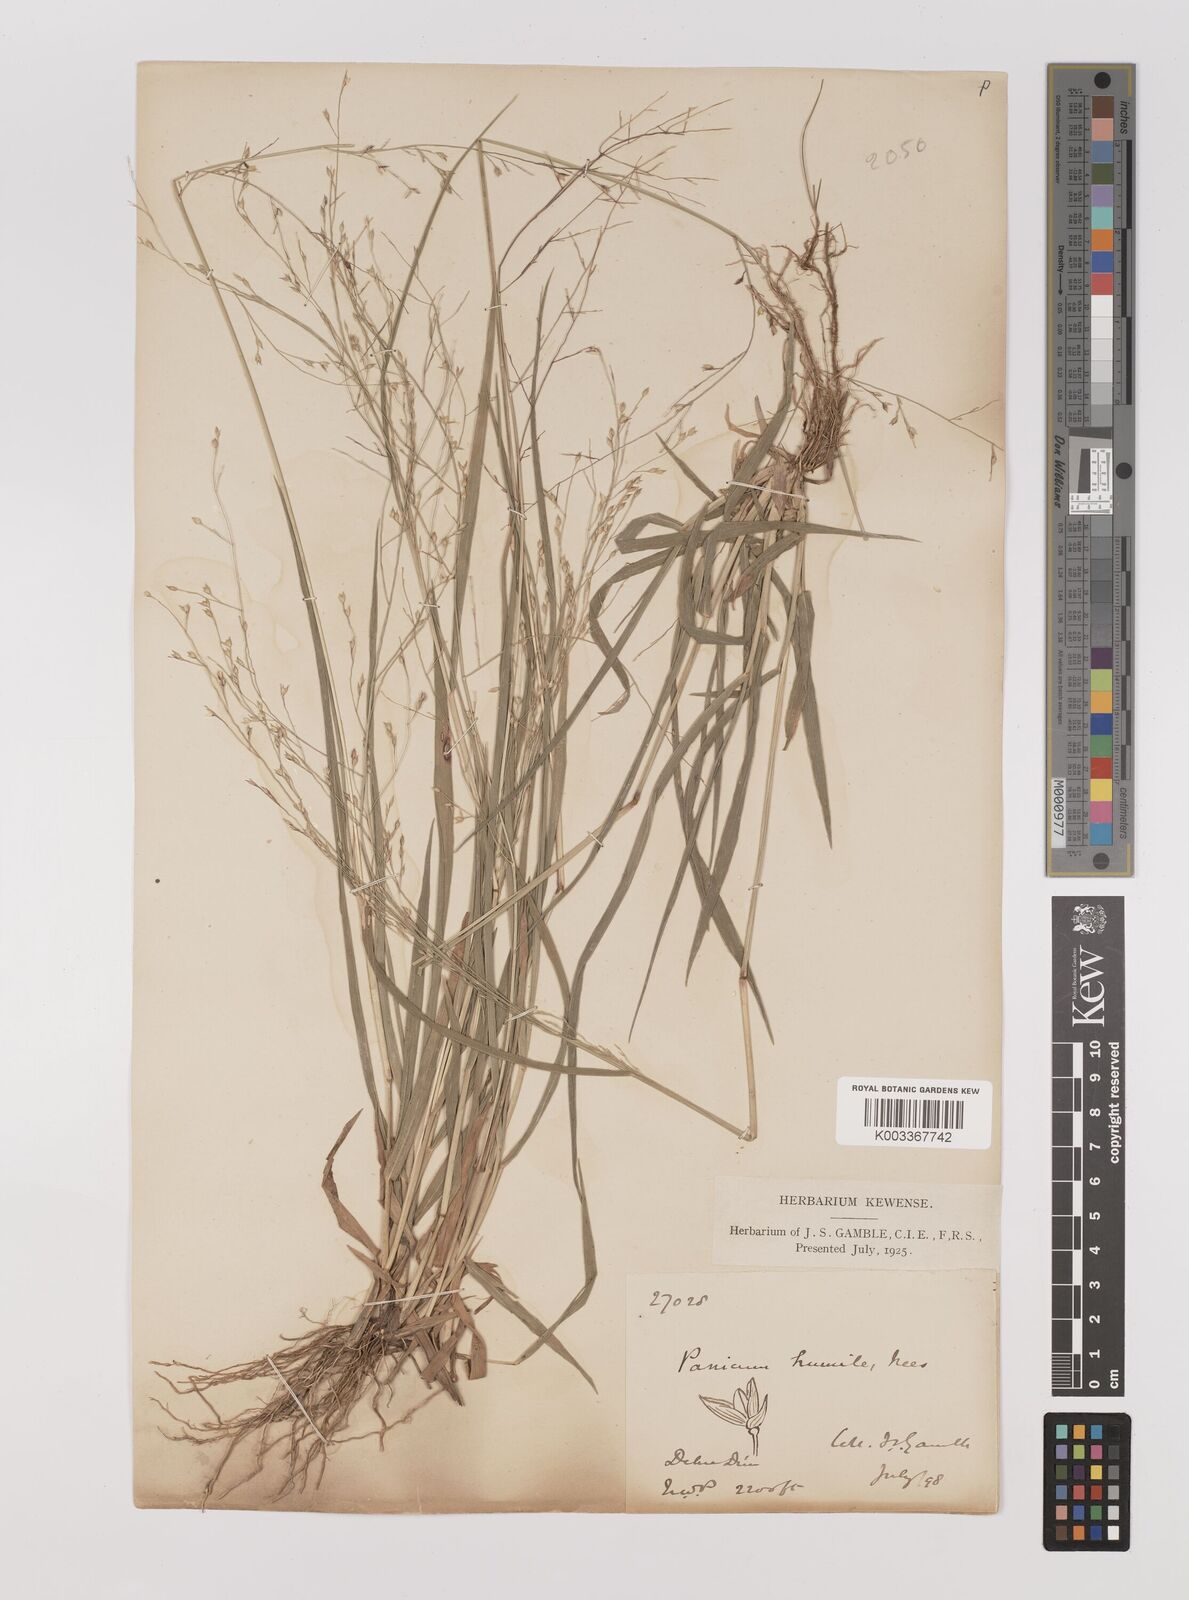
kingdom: Plantae
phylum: Tracheophyta
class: Liliopsida
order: Poales
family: Poaceae
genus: Panicum
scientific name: Panicum curviflorum
